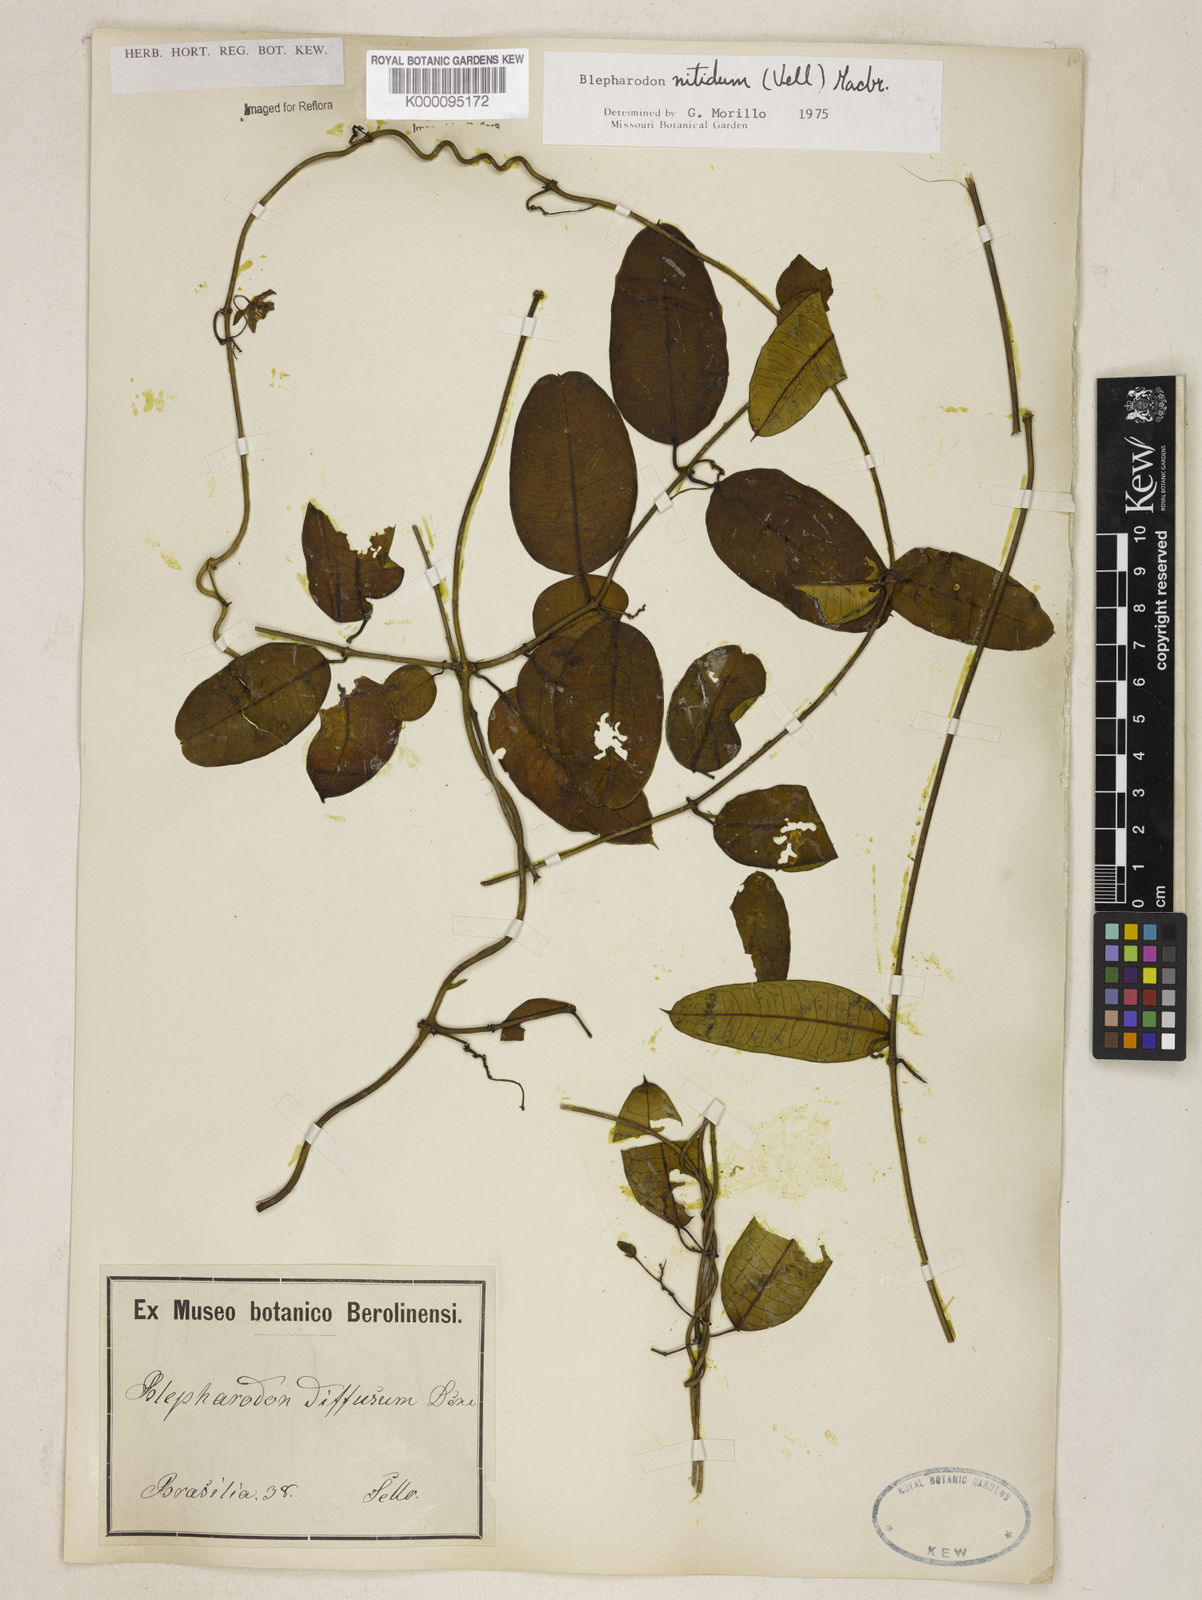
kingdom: Plantae
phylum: Tracheophyta
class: Magnoliopsida
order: Gentianales
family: Apocynaceae
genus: Blepharodon
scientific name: Blepharodon pictum
